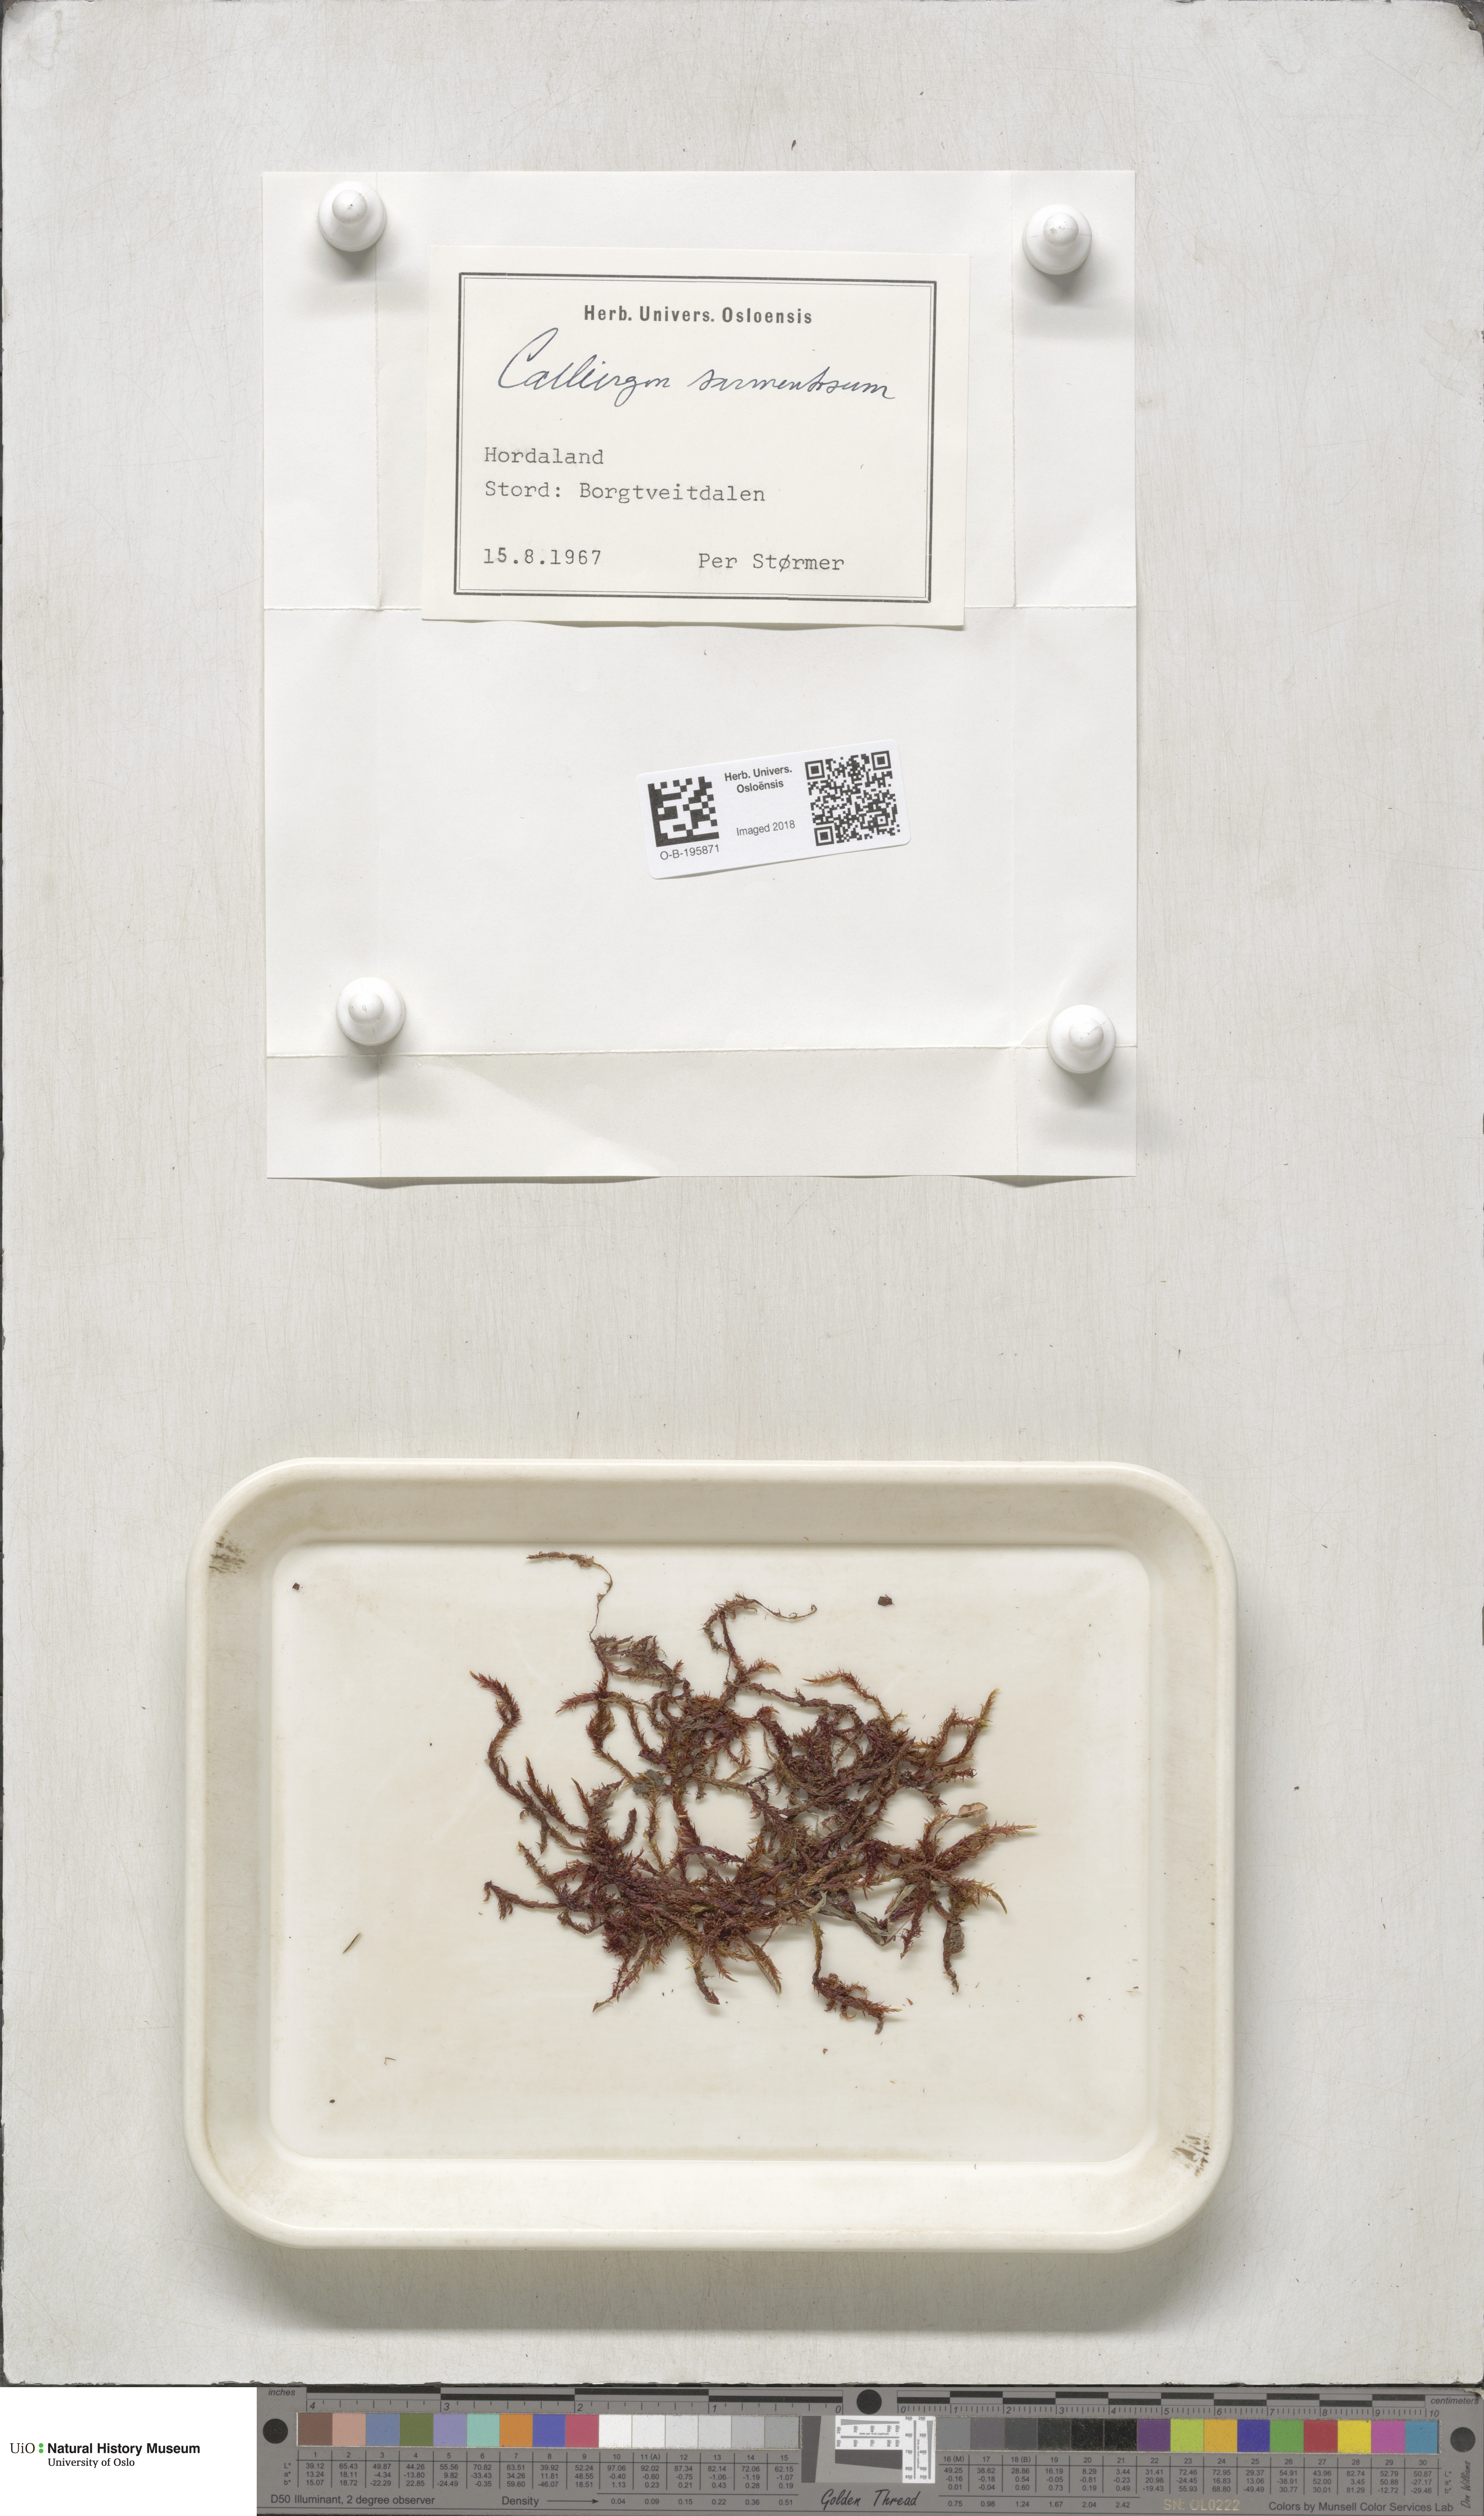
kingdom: Plantae
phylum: Bryophyta
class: Bryopsida
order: Hypnales
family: Calliergonaceae
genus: Sarmentypnum
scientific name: Sarmentypnum sarmentosum
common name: Twiggy spoon moss
